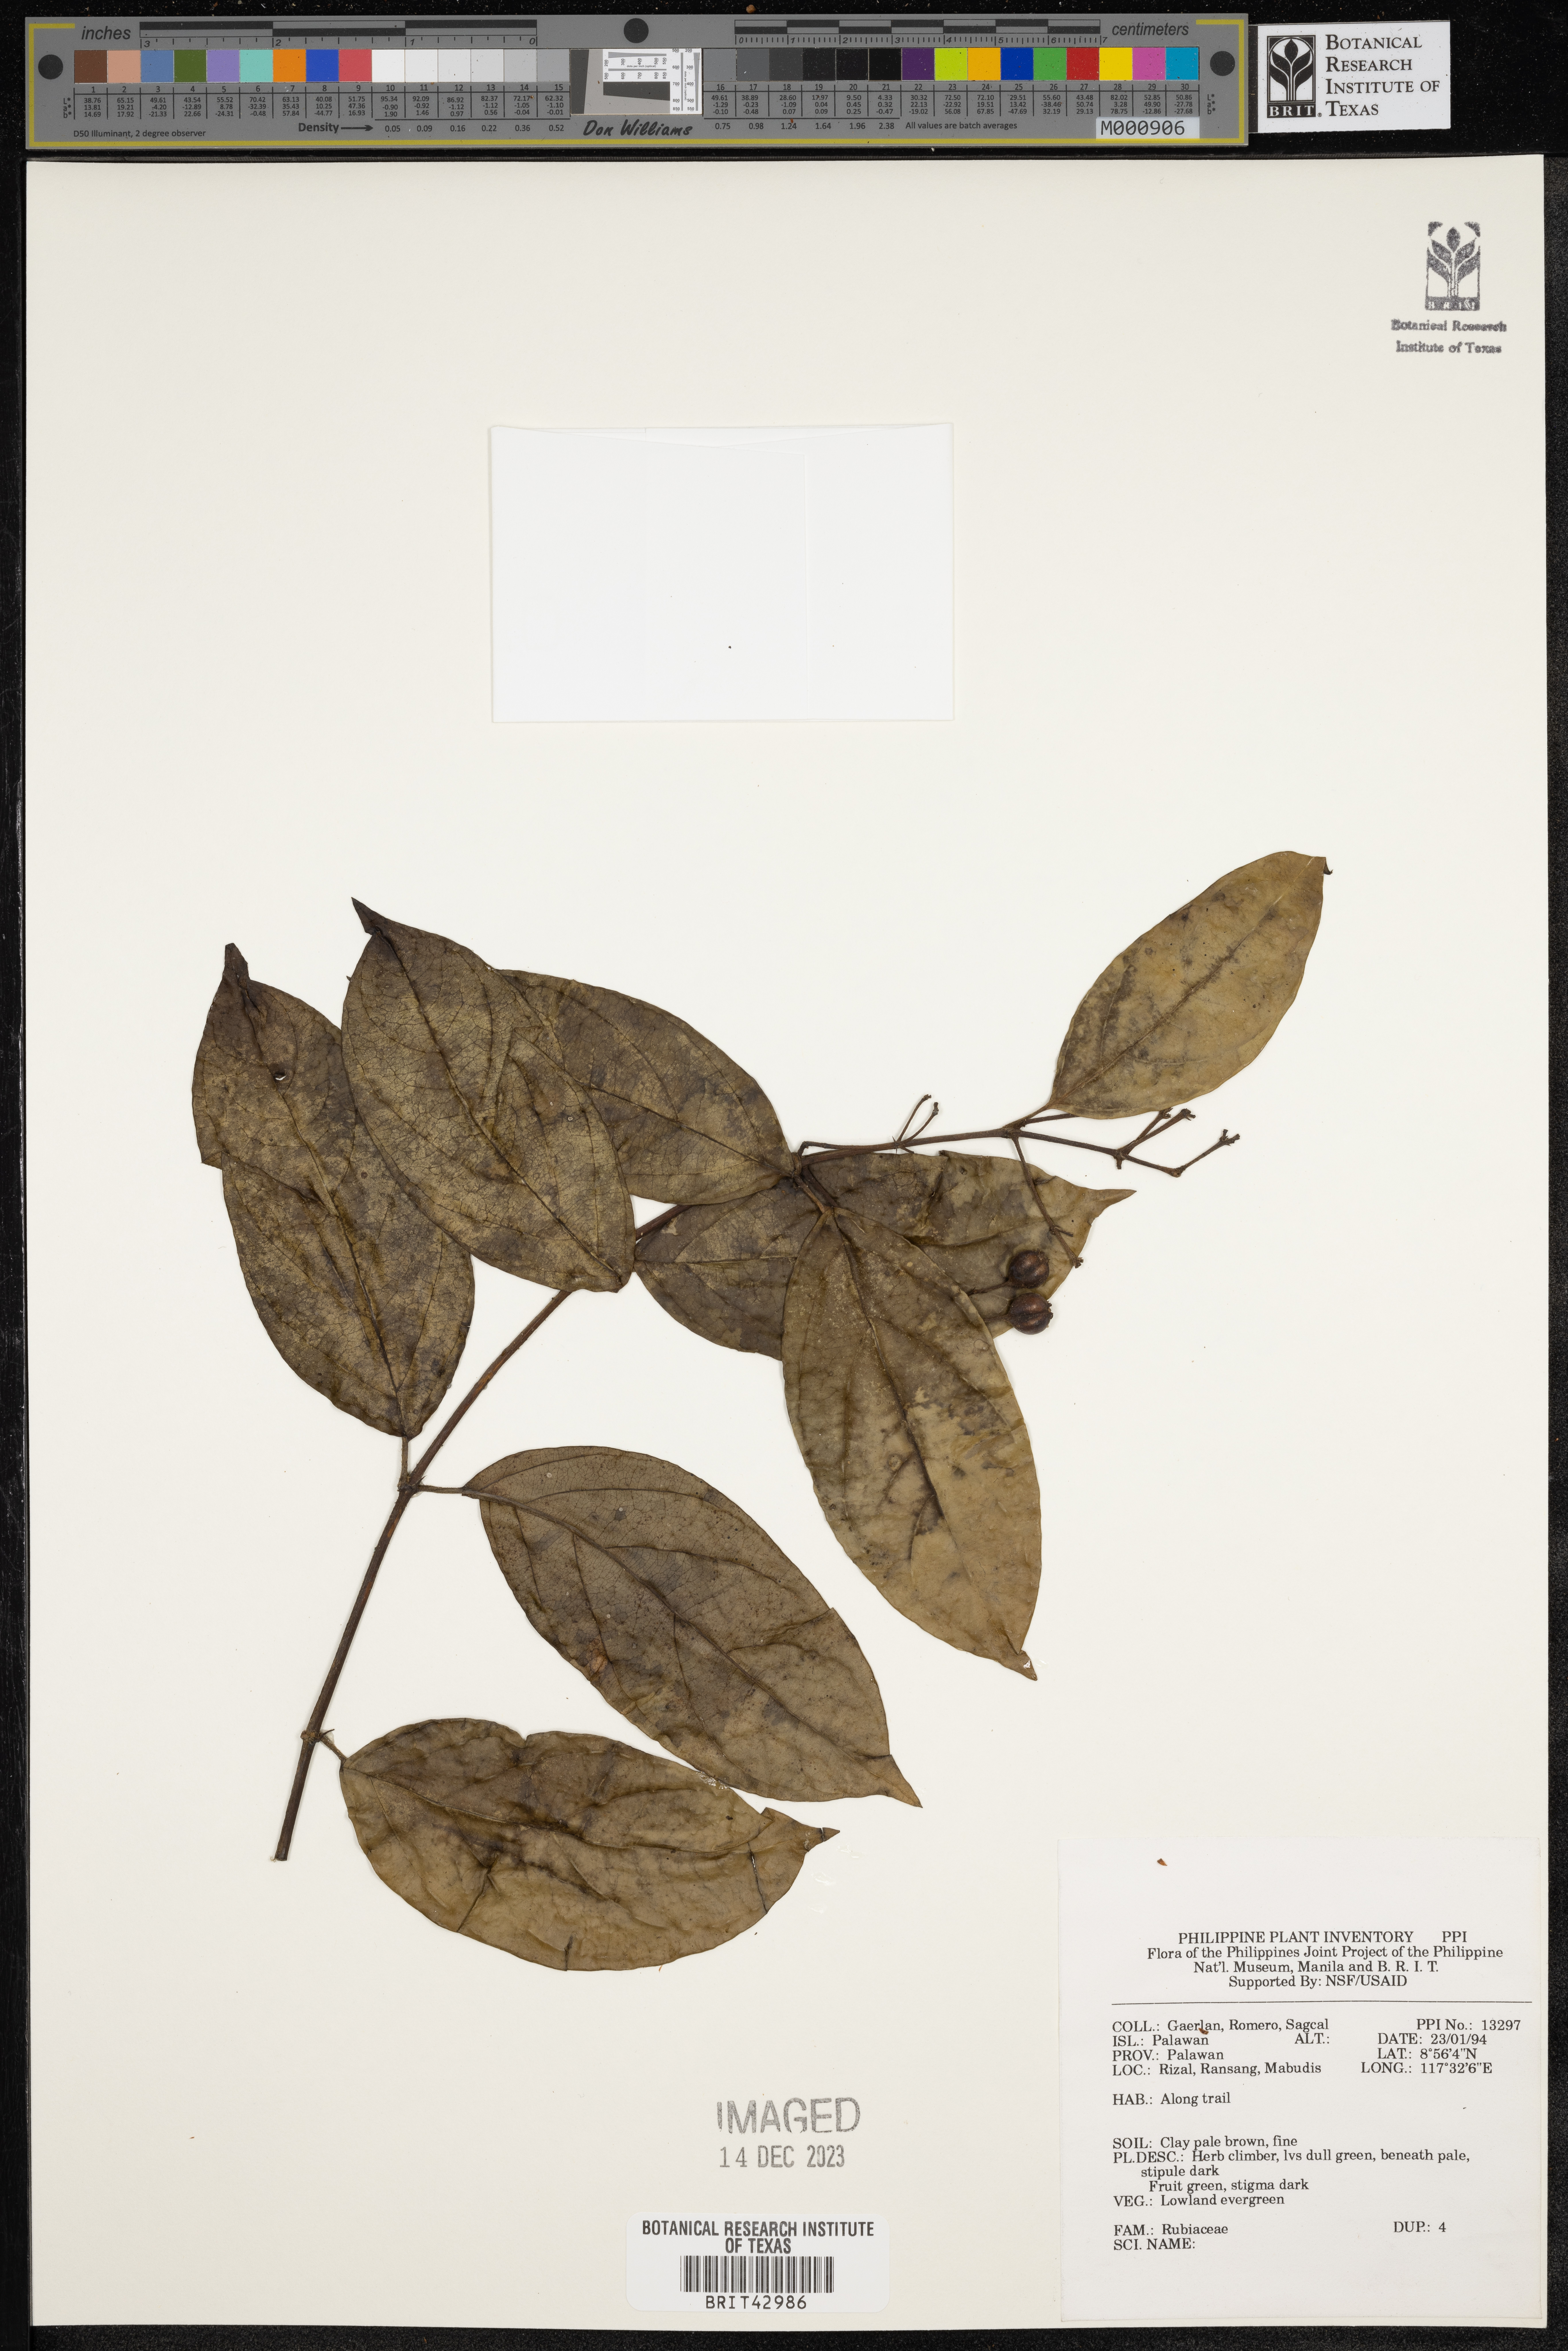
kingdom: Plantae
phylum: Tracheophyta
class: Magnoliopsida
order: Gentianales
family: Rubiaceae
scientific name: Rubiaceae
